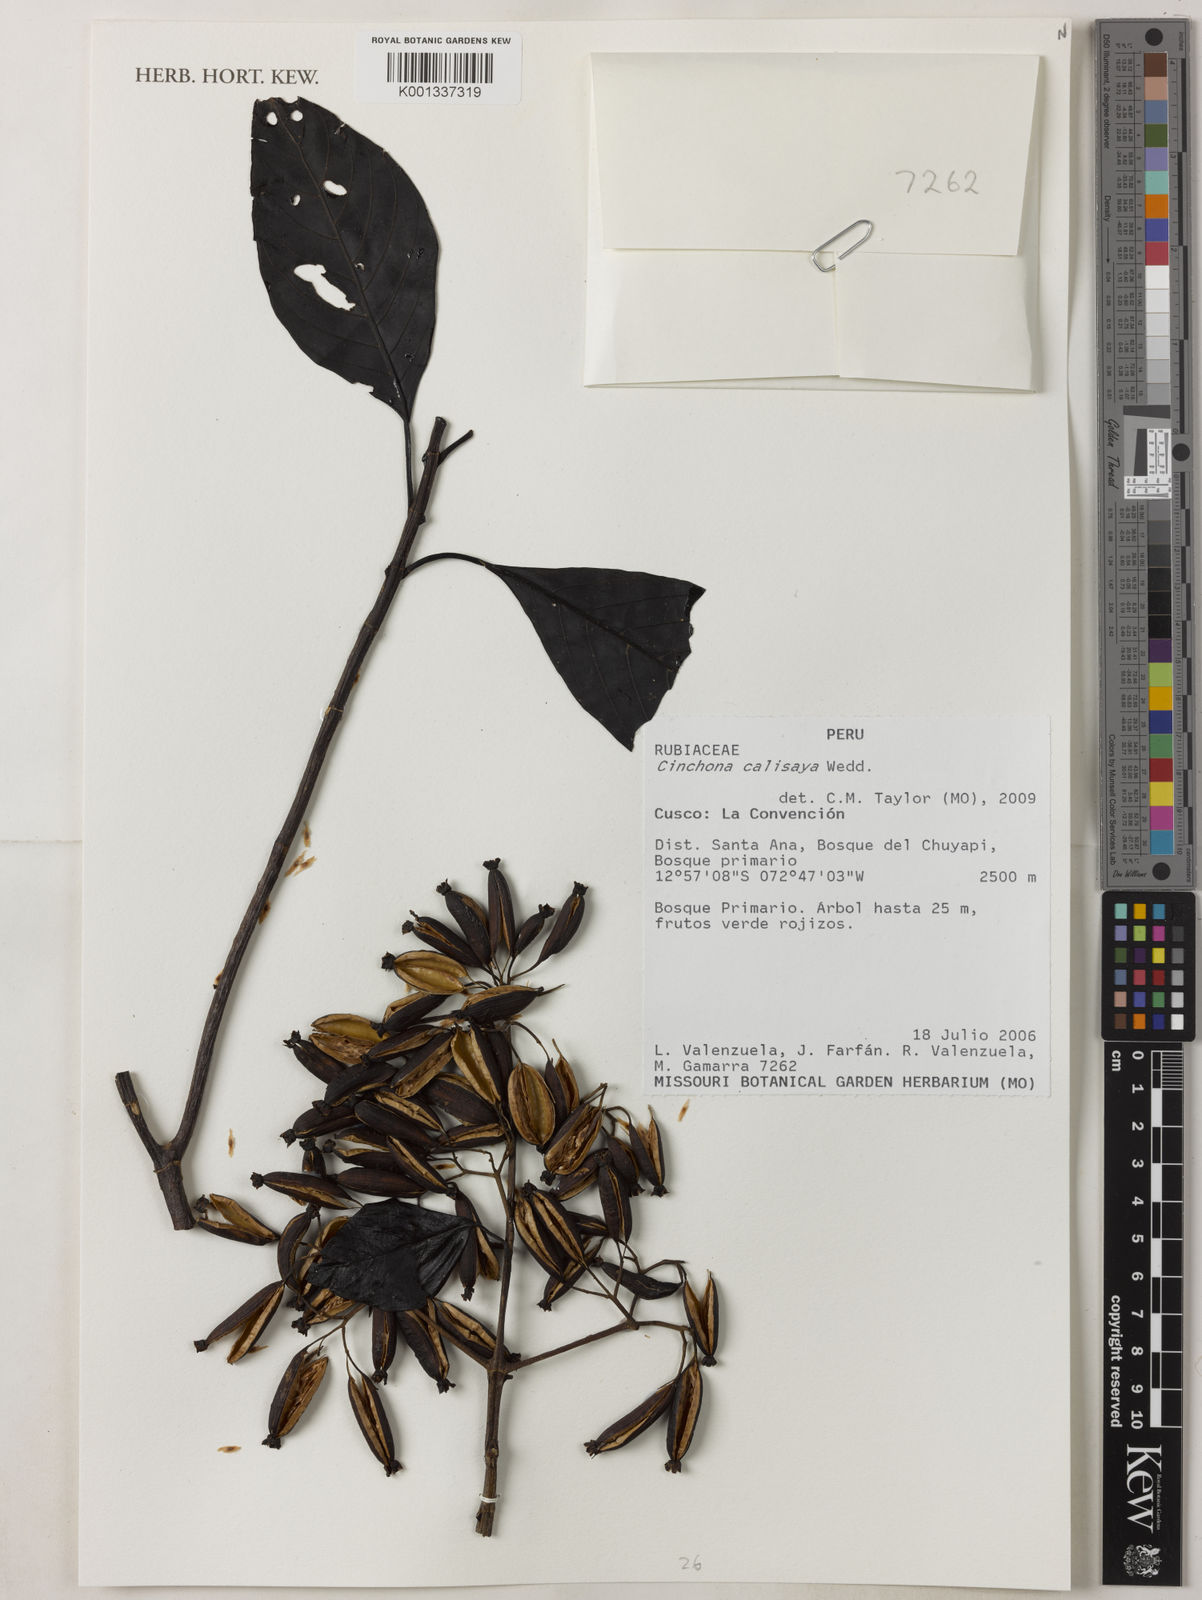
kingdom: Plantae
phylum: Tracheophyta
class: Magnoliopsida
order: Gentianales
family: Rubiaceae
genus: Cinchona
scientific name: Cinchona calisaya
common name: Ledgerbark
